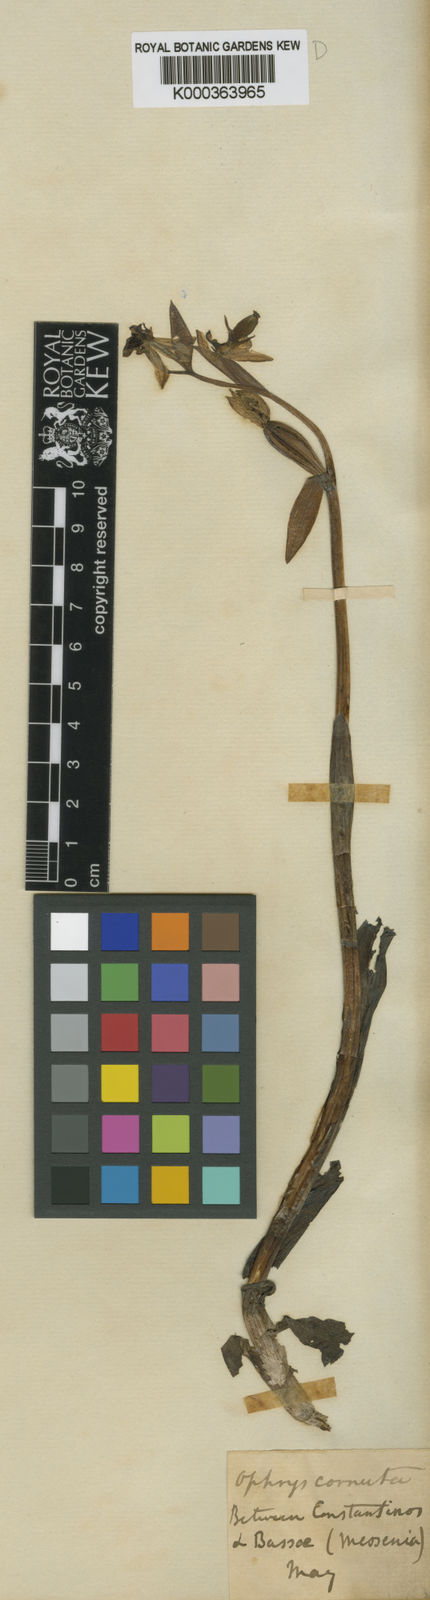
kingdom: Plantae
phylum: Tracheophyta
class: Liliopsida
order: Asparagales
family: Orchidaceae
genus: Ophrys
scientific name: Ophrys
